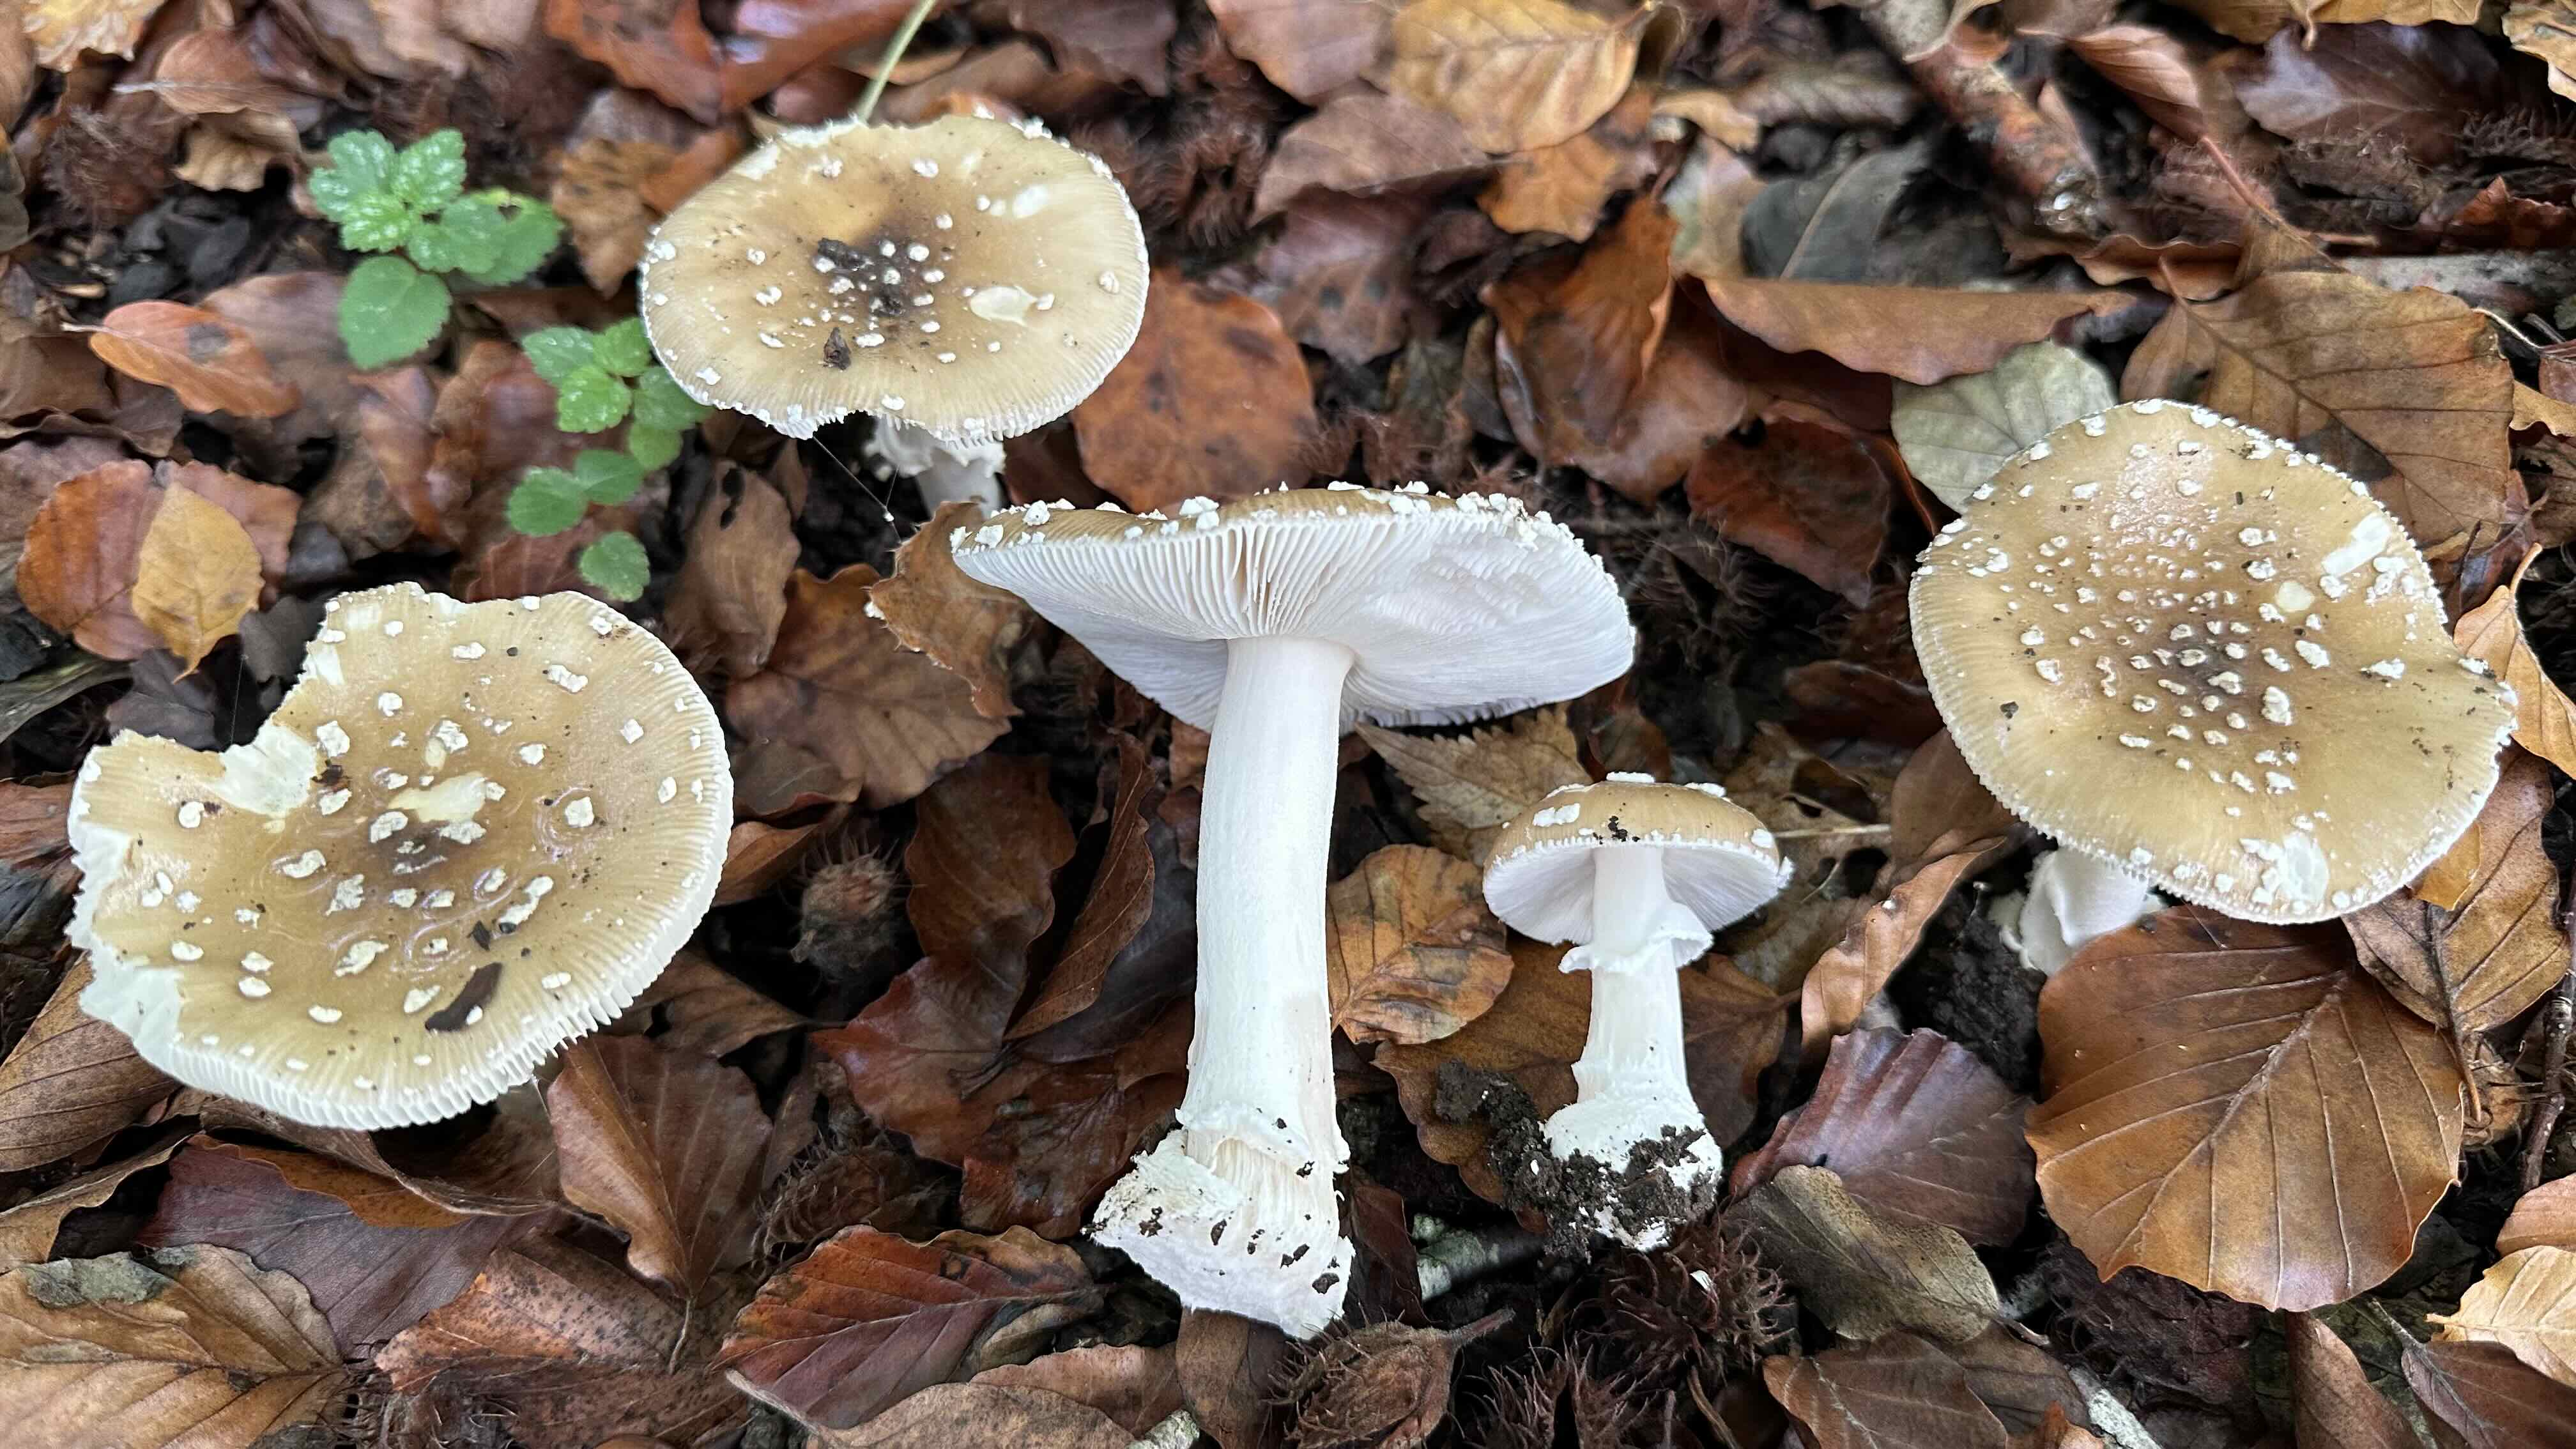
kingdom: Fungi
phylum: Basidiomycota
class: Agaricomycetes
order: Agaricales
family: Amanitaceae
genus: Amanita
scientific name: Amanita pantherina
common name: panter-fluesvamp
